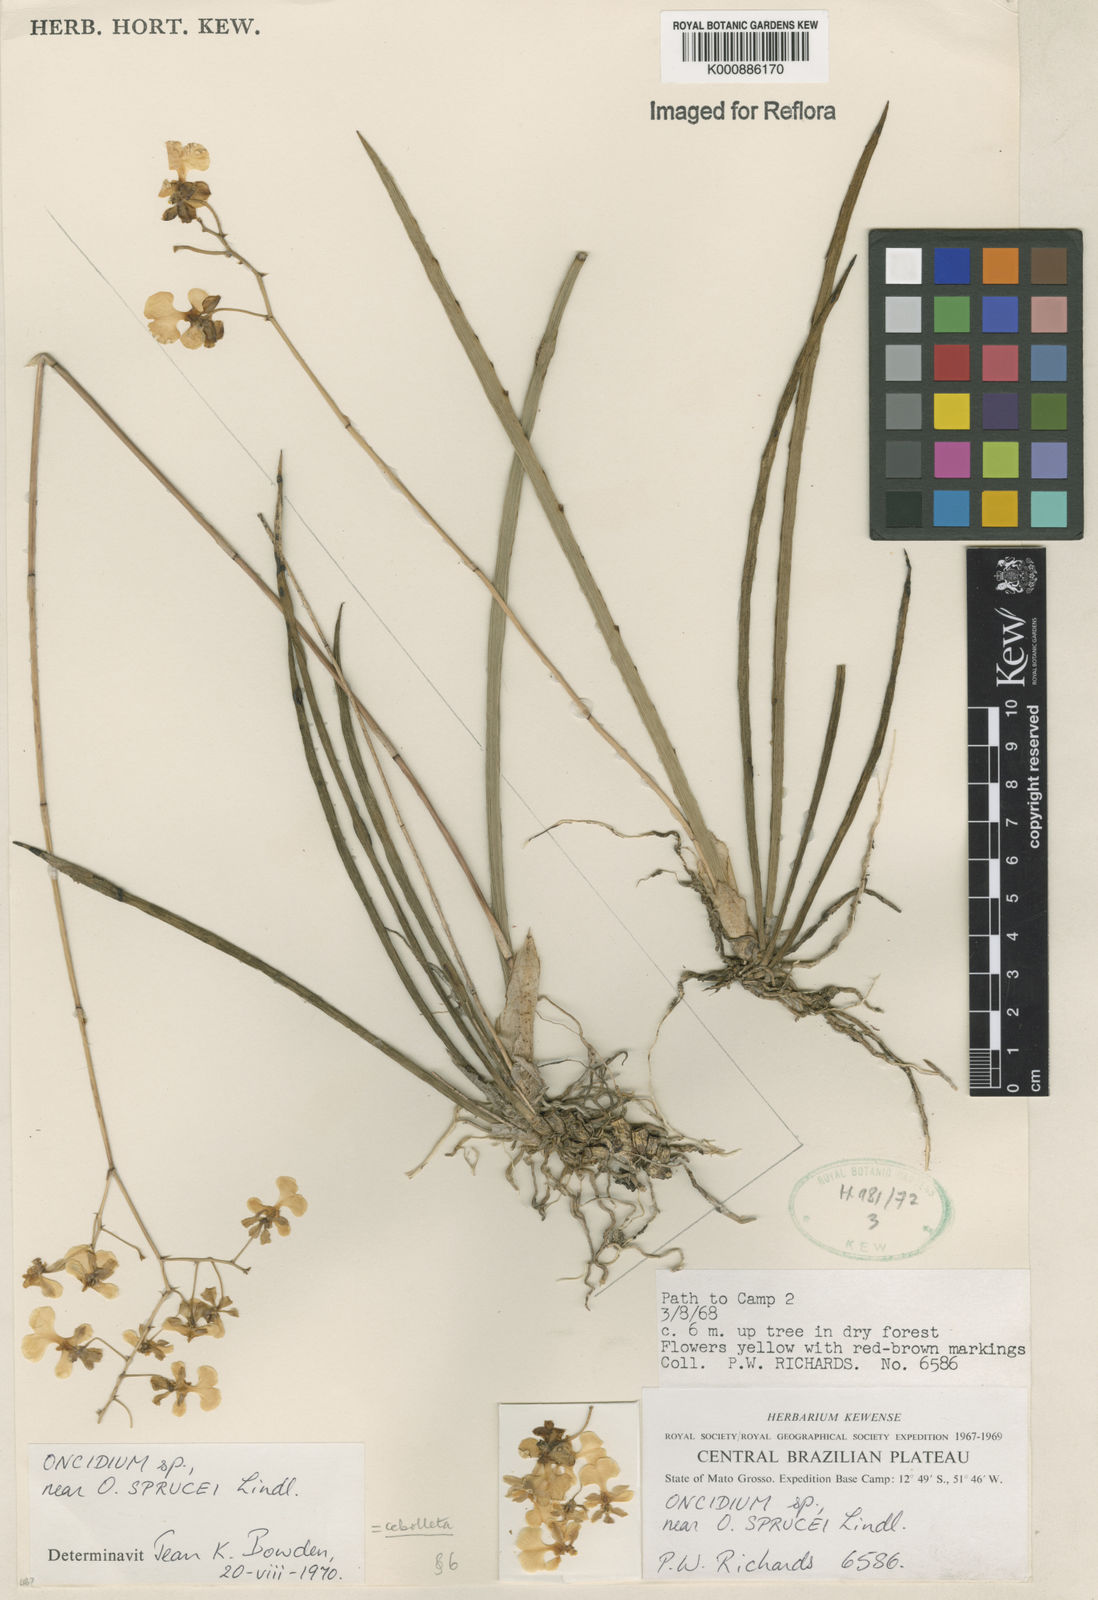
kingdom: Plantae
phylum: Tracheophyta
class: Liliopsida
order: Asparagales
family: Orchidaceae
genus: Trichocentrum
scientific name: Trichocentrum cebolleta
